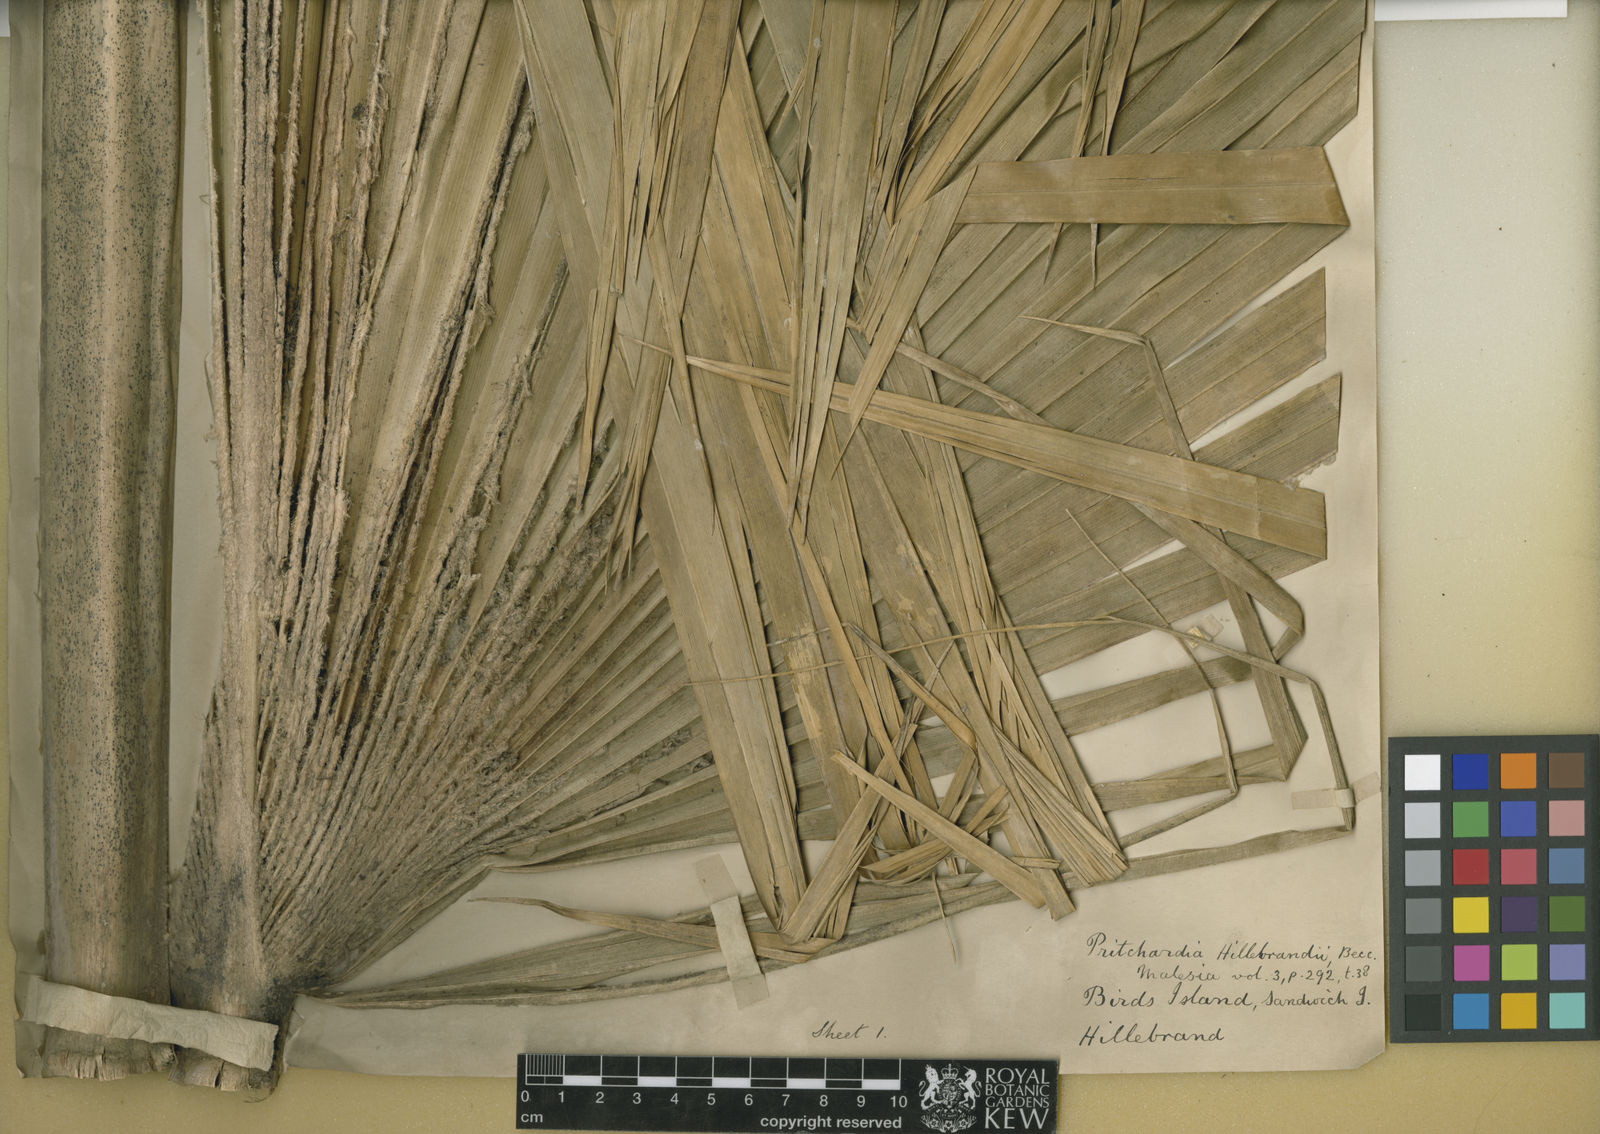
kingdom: Plantae
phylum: Tracheophyta
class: Liliopsida
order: Arecales
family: Arecaceae
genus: Pritchardia
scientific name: Pritchardia hillebrandii
